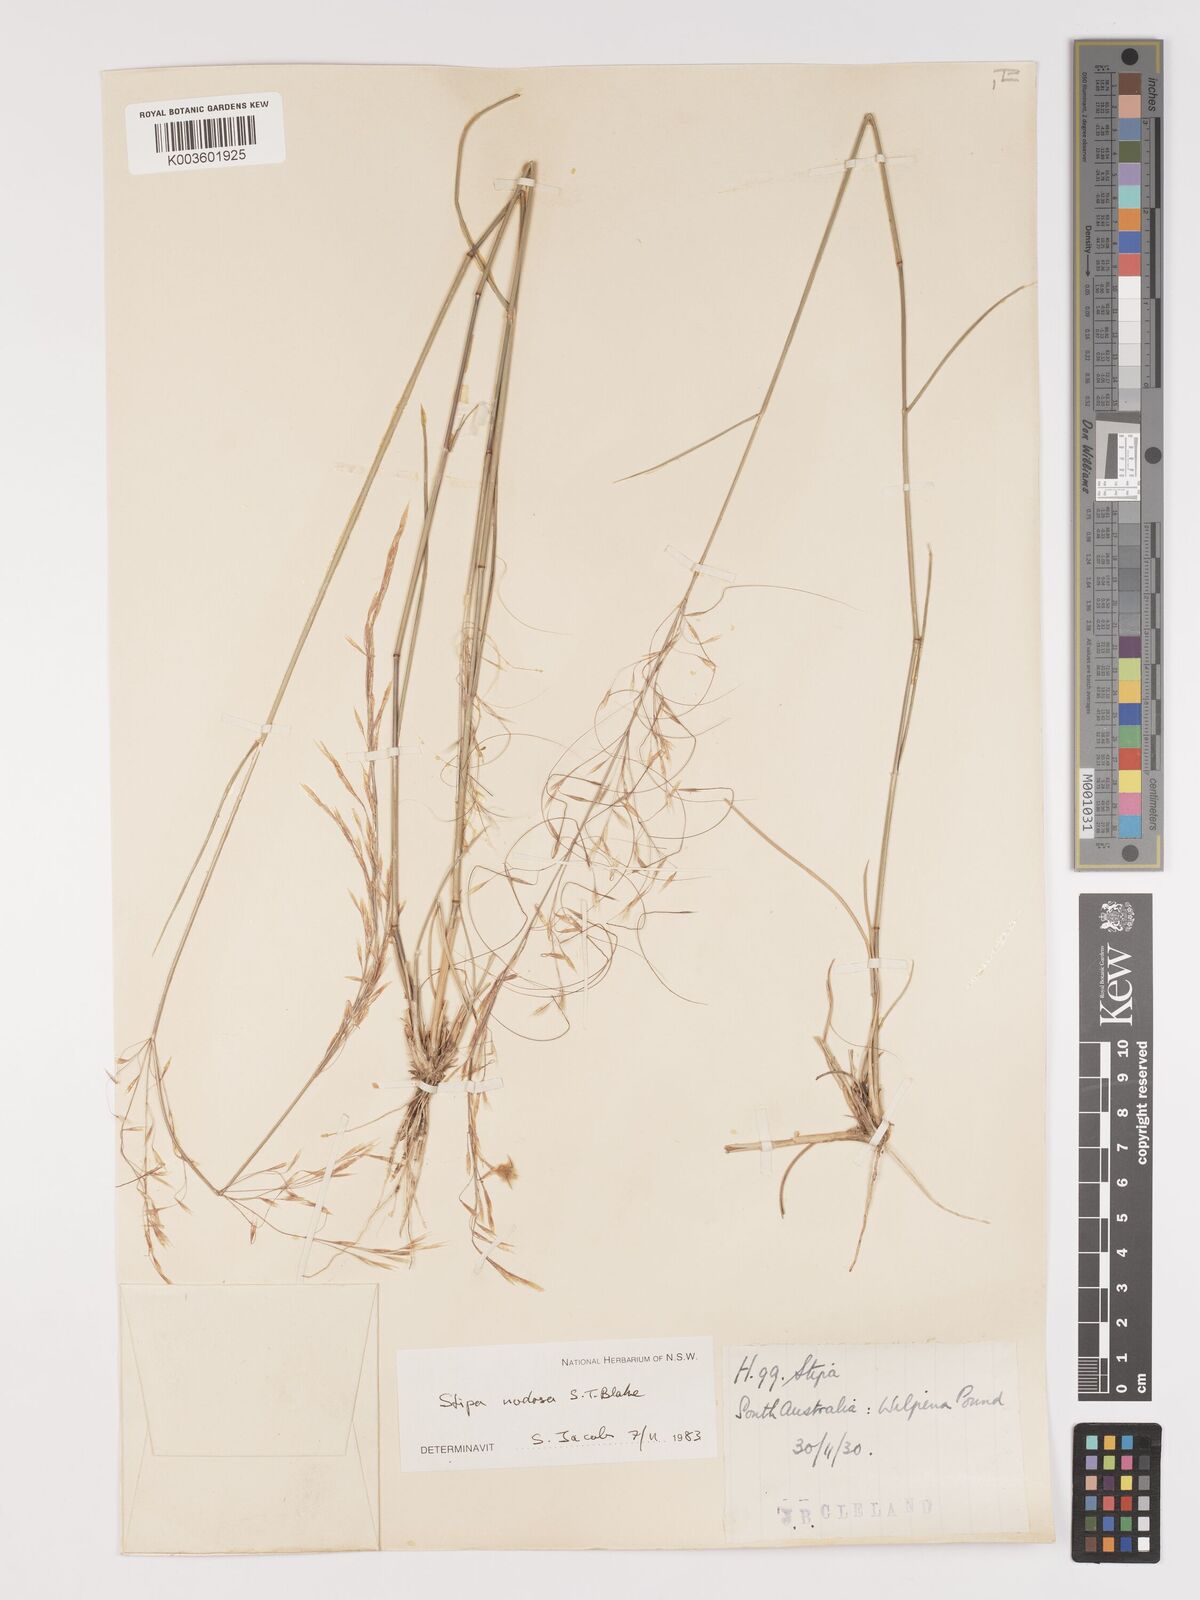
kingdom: Plantae
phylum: Tracheophyta
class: Liliopsida
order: Poales
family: Poaceae
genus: Austrostipa
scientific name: Austrostipa nodosa
